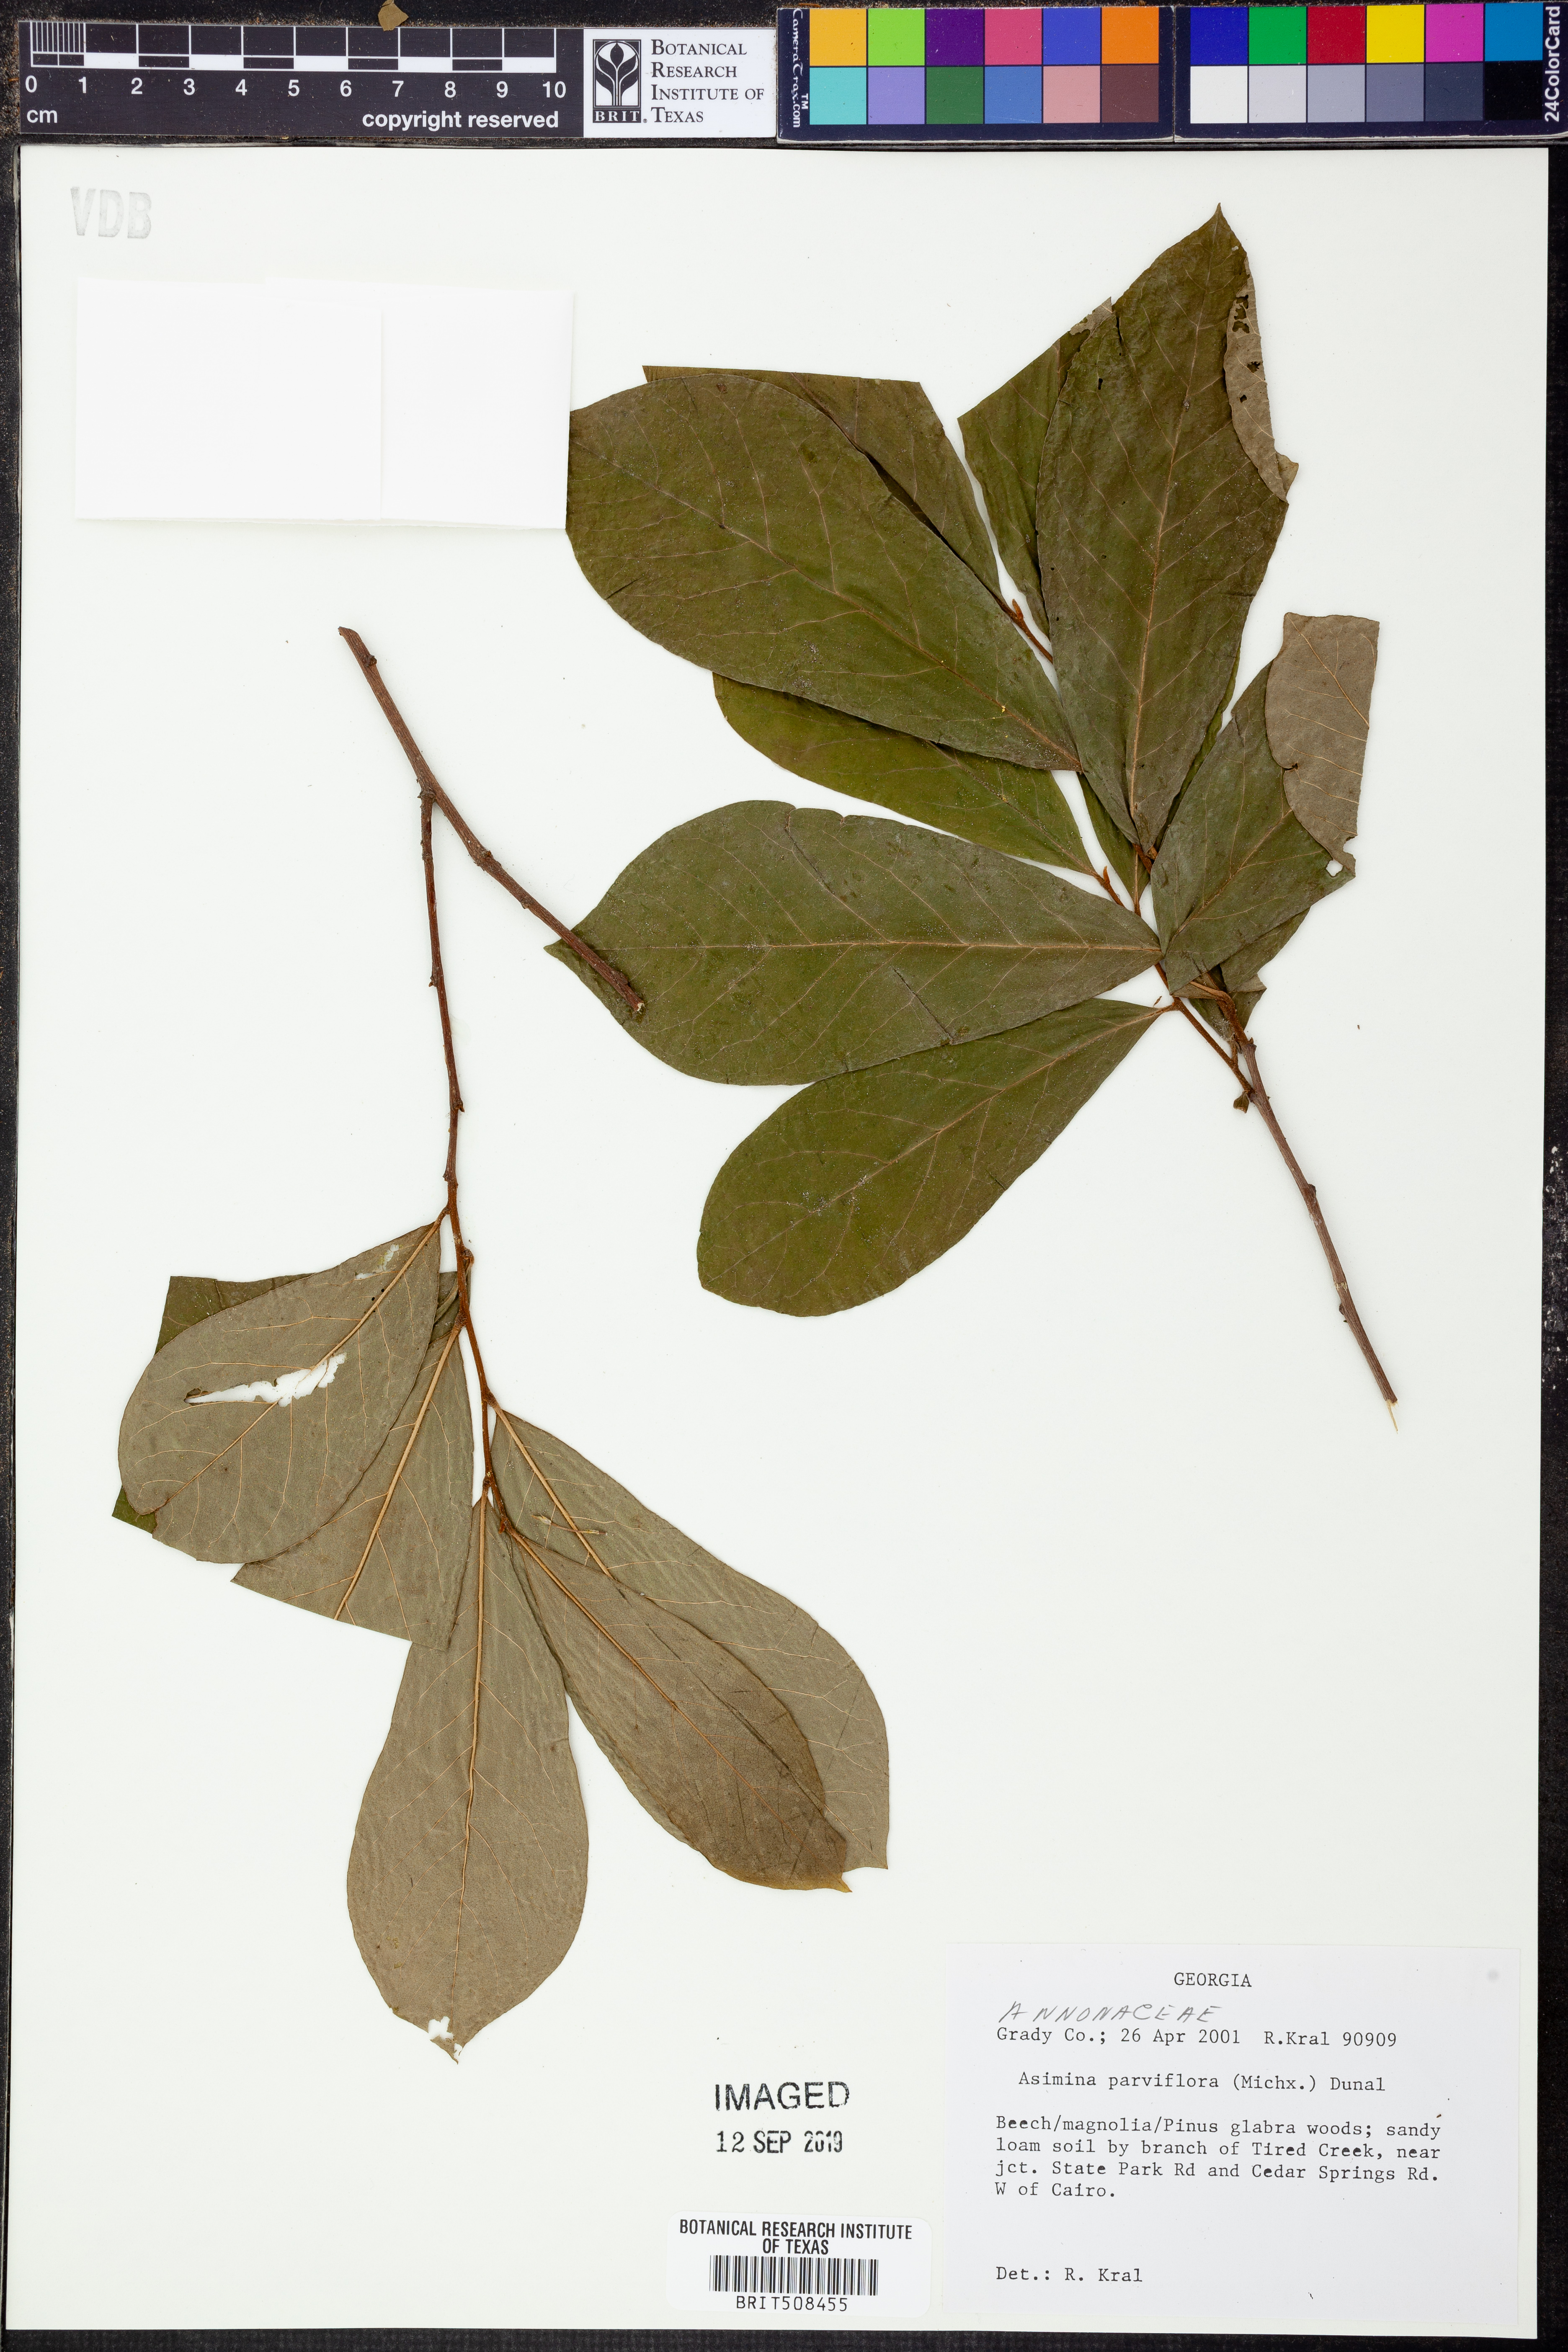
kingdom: Plantae
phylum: Tracheophyta
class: Magnoliopsida
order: Magnoliales
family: Annonaceae
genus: Asimina
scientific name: Asimina parviflora
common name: Dwarf pawpaw
